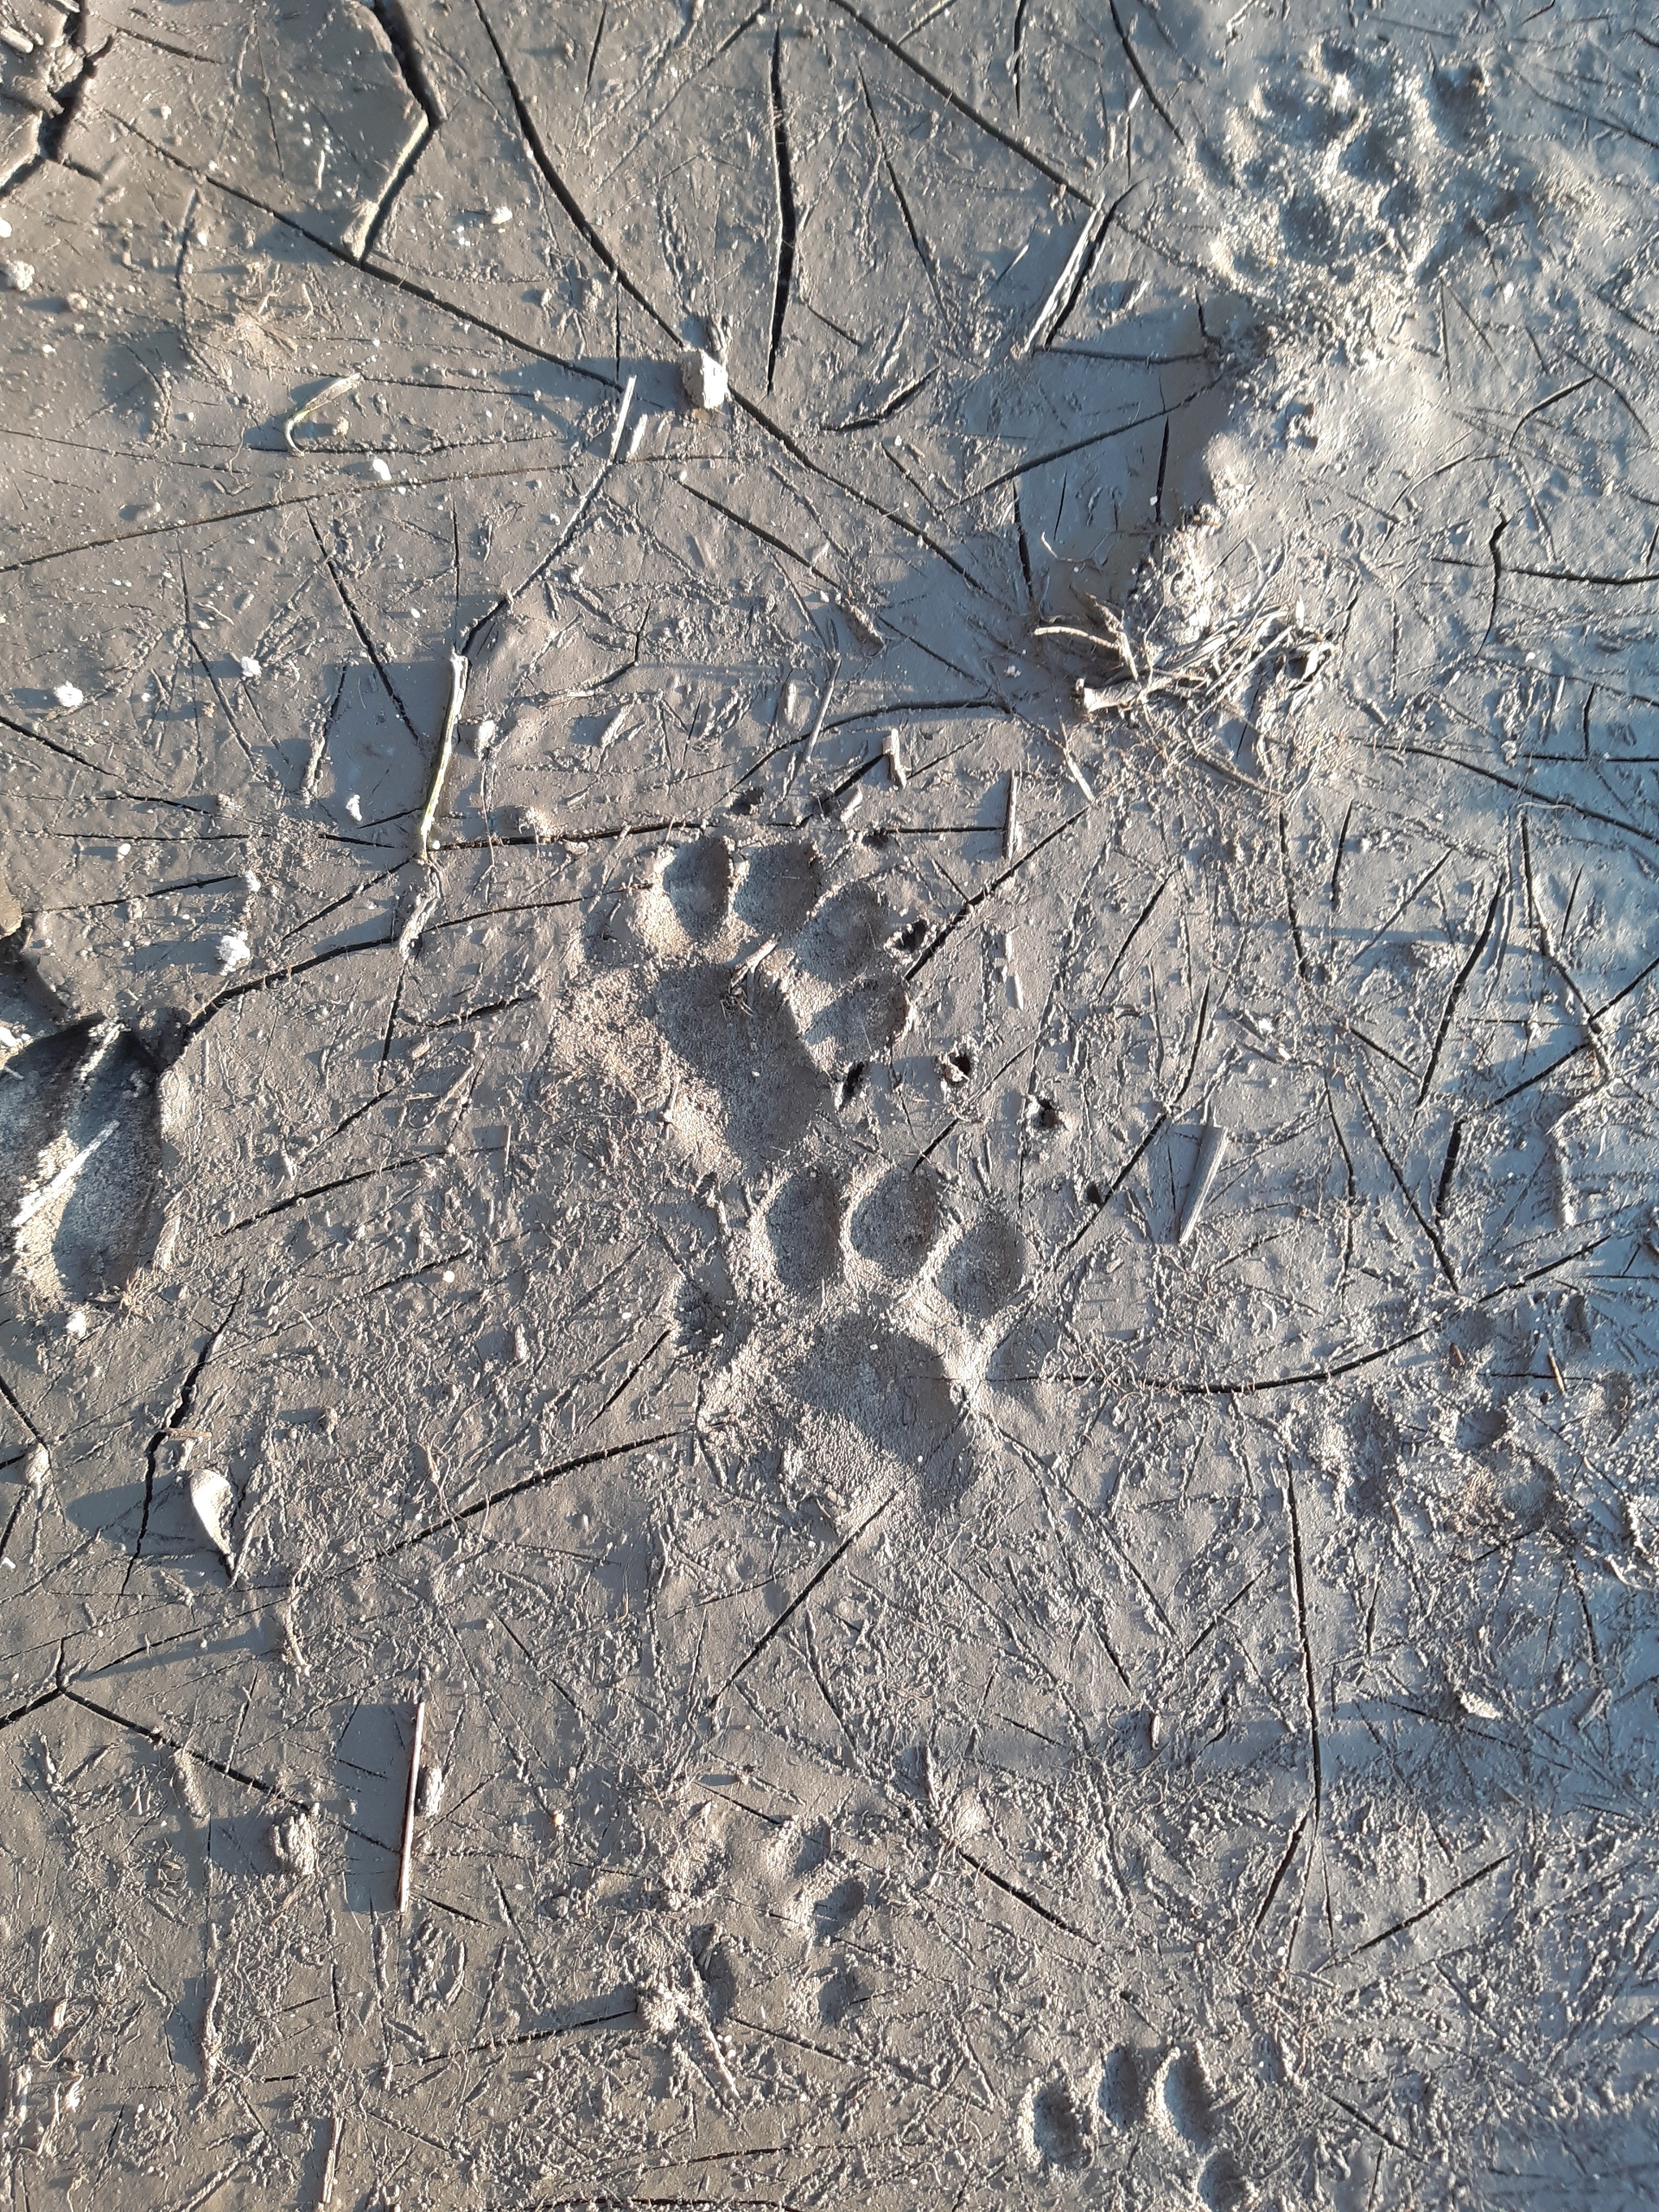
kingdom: Animalia
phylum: Chordata
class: Mammalia
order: Carnivora
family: Mustelidae
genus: Meles
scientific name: Meles meles
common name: Grævling
